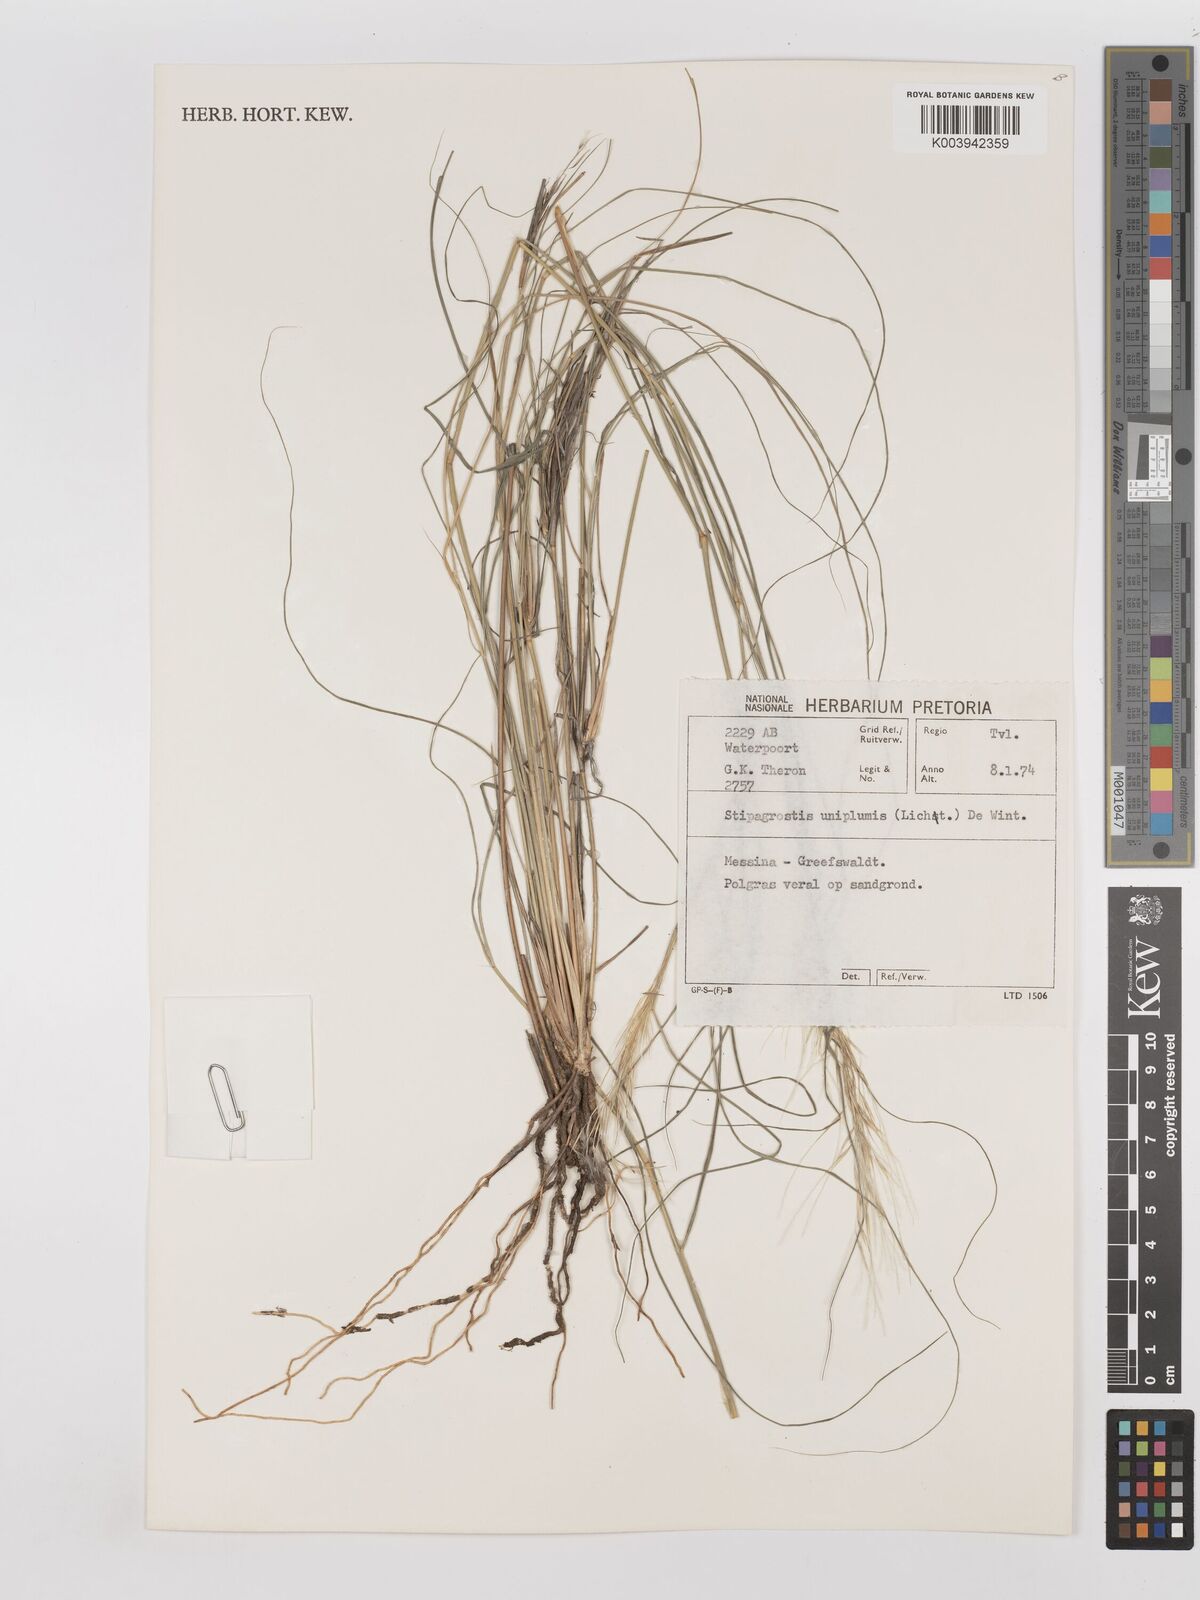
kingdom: Plantae
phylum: Tracheophyta
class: Liliopsida
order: Poales
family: Poaceae
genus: Stipagrostis
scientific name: Stipagrostis uniplumis
